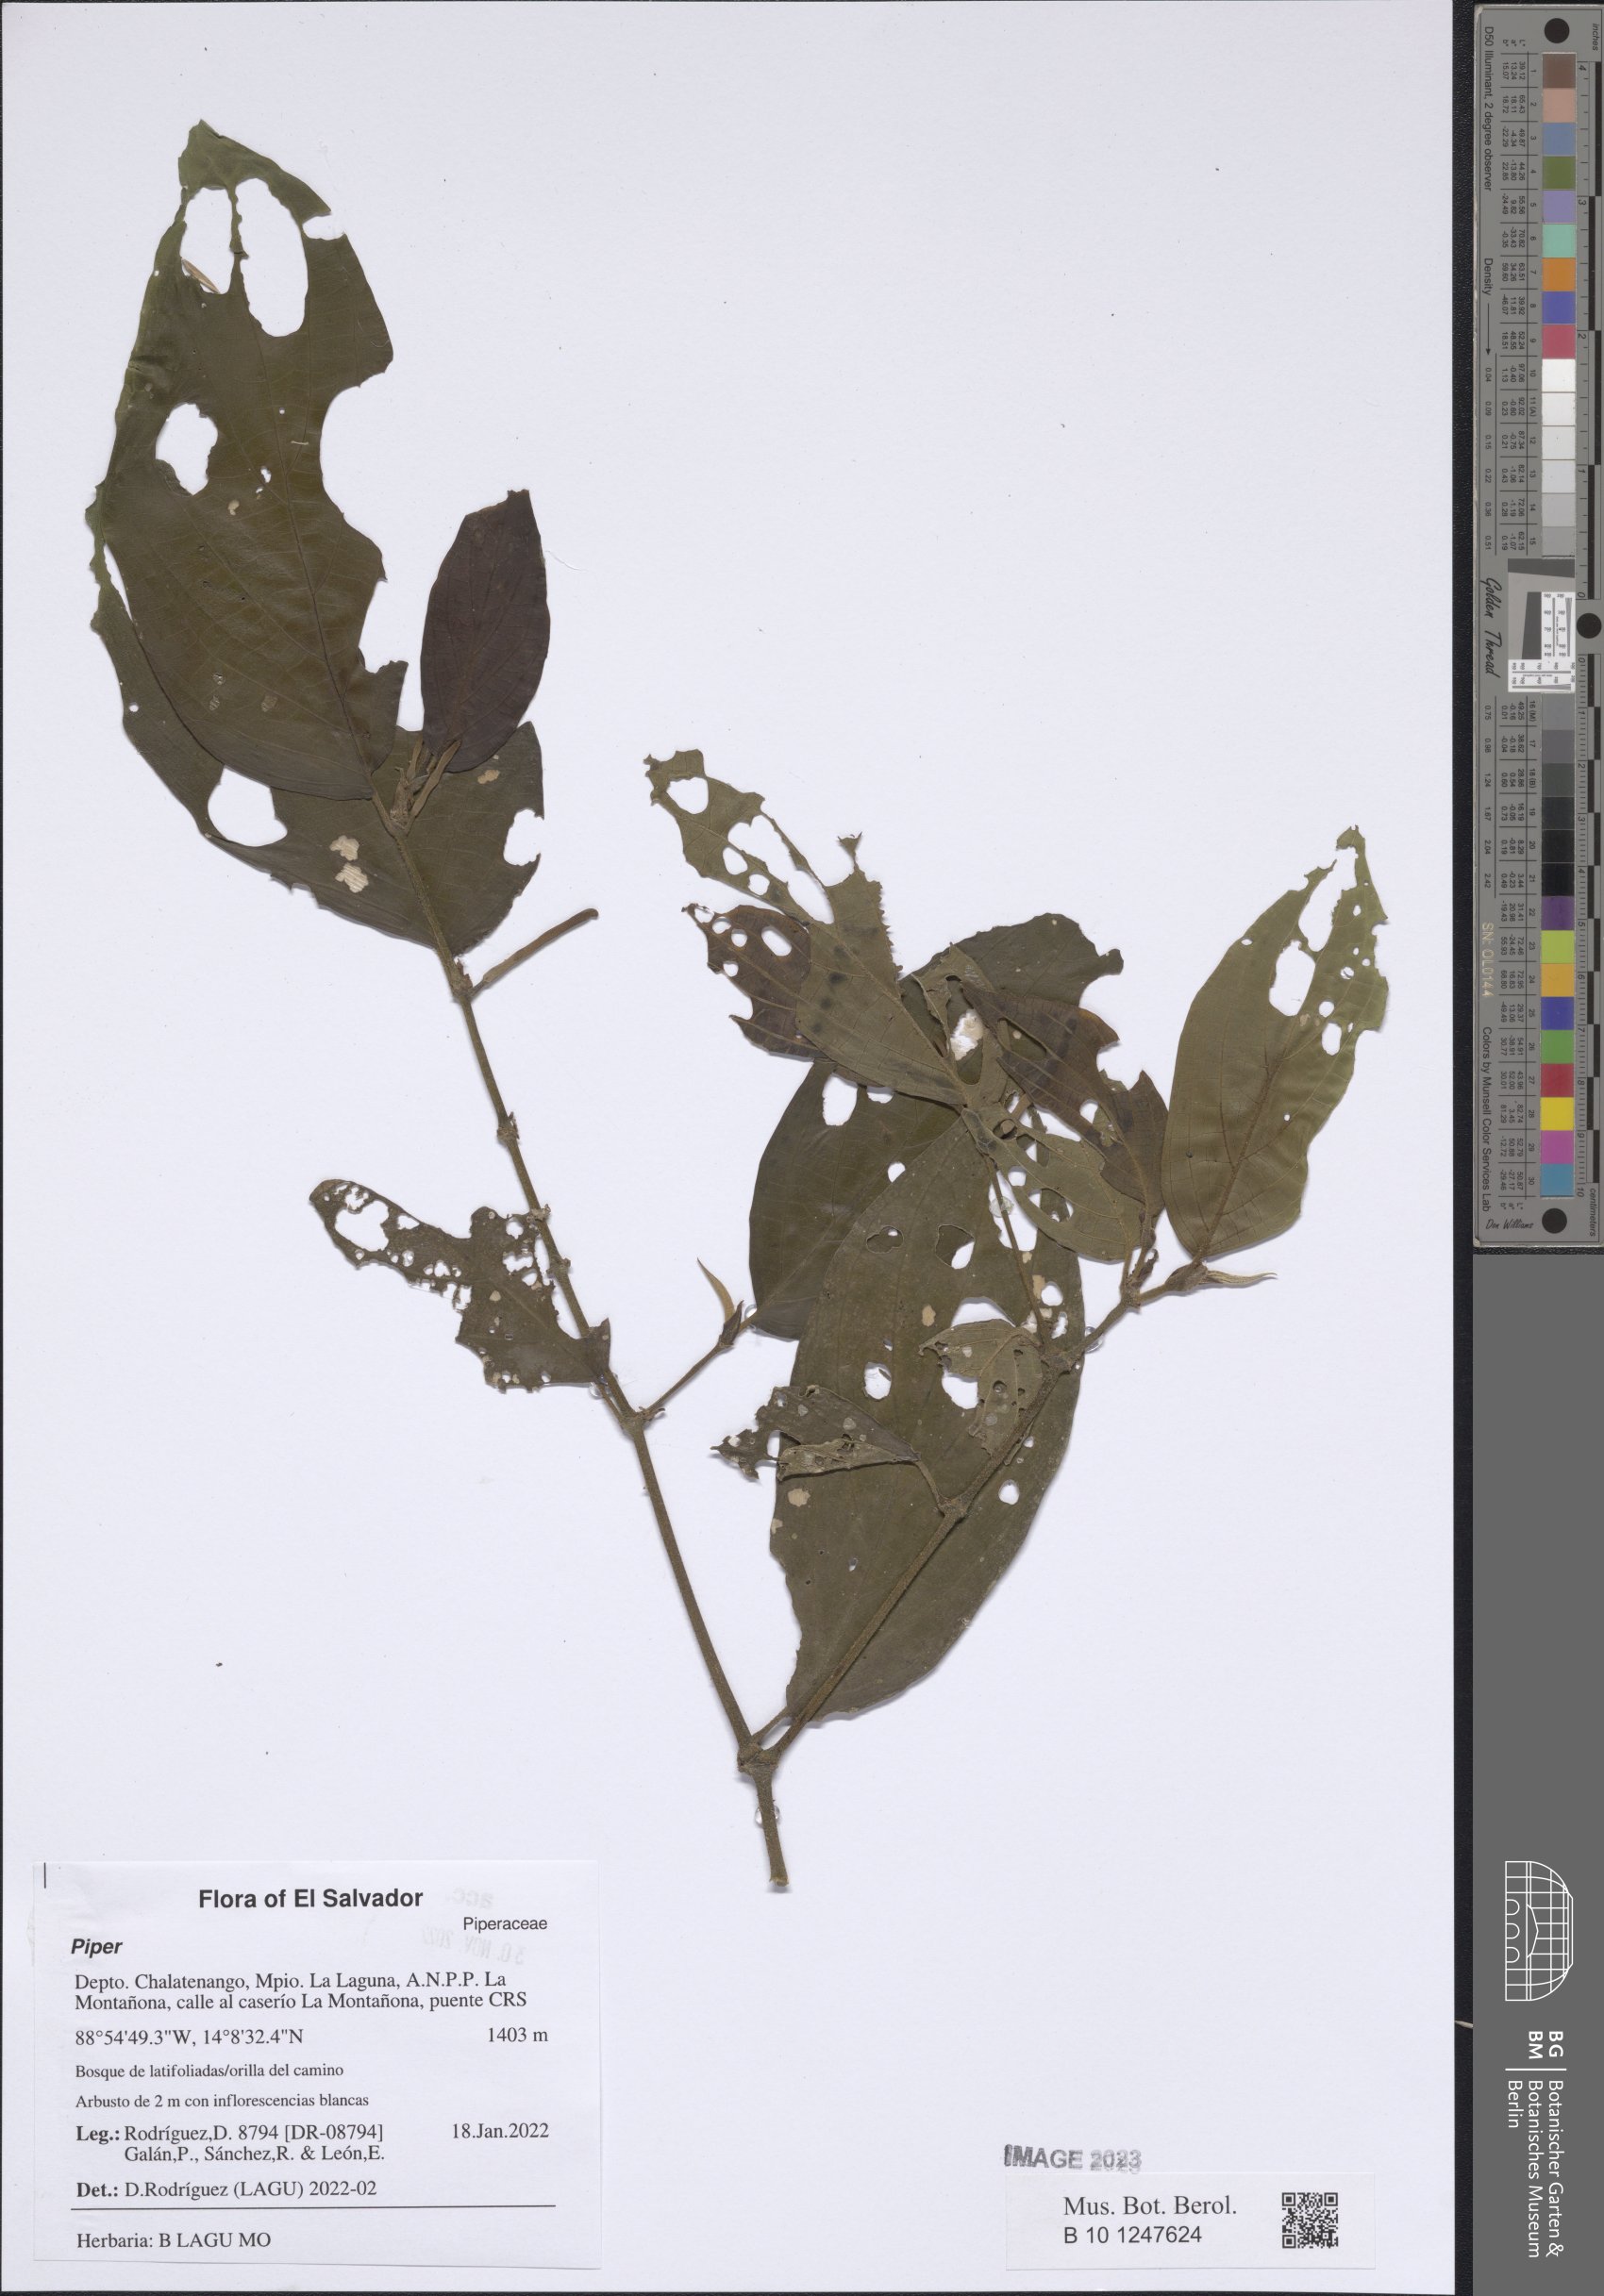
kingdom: Plantae
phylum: Tracheophyta
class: Magnoliopsida
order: Piperales
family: Piperaceae
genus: Piper
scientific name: Piper
